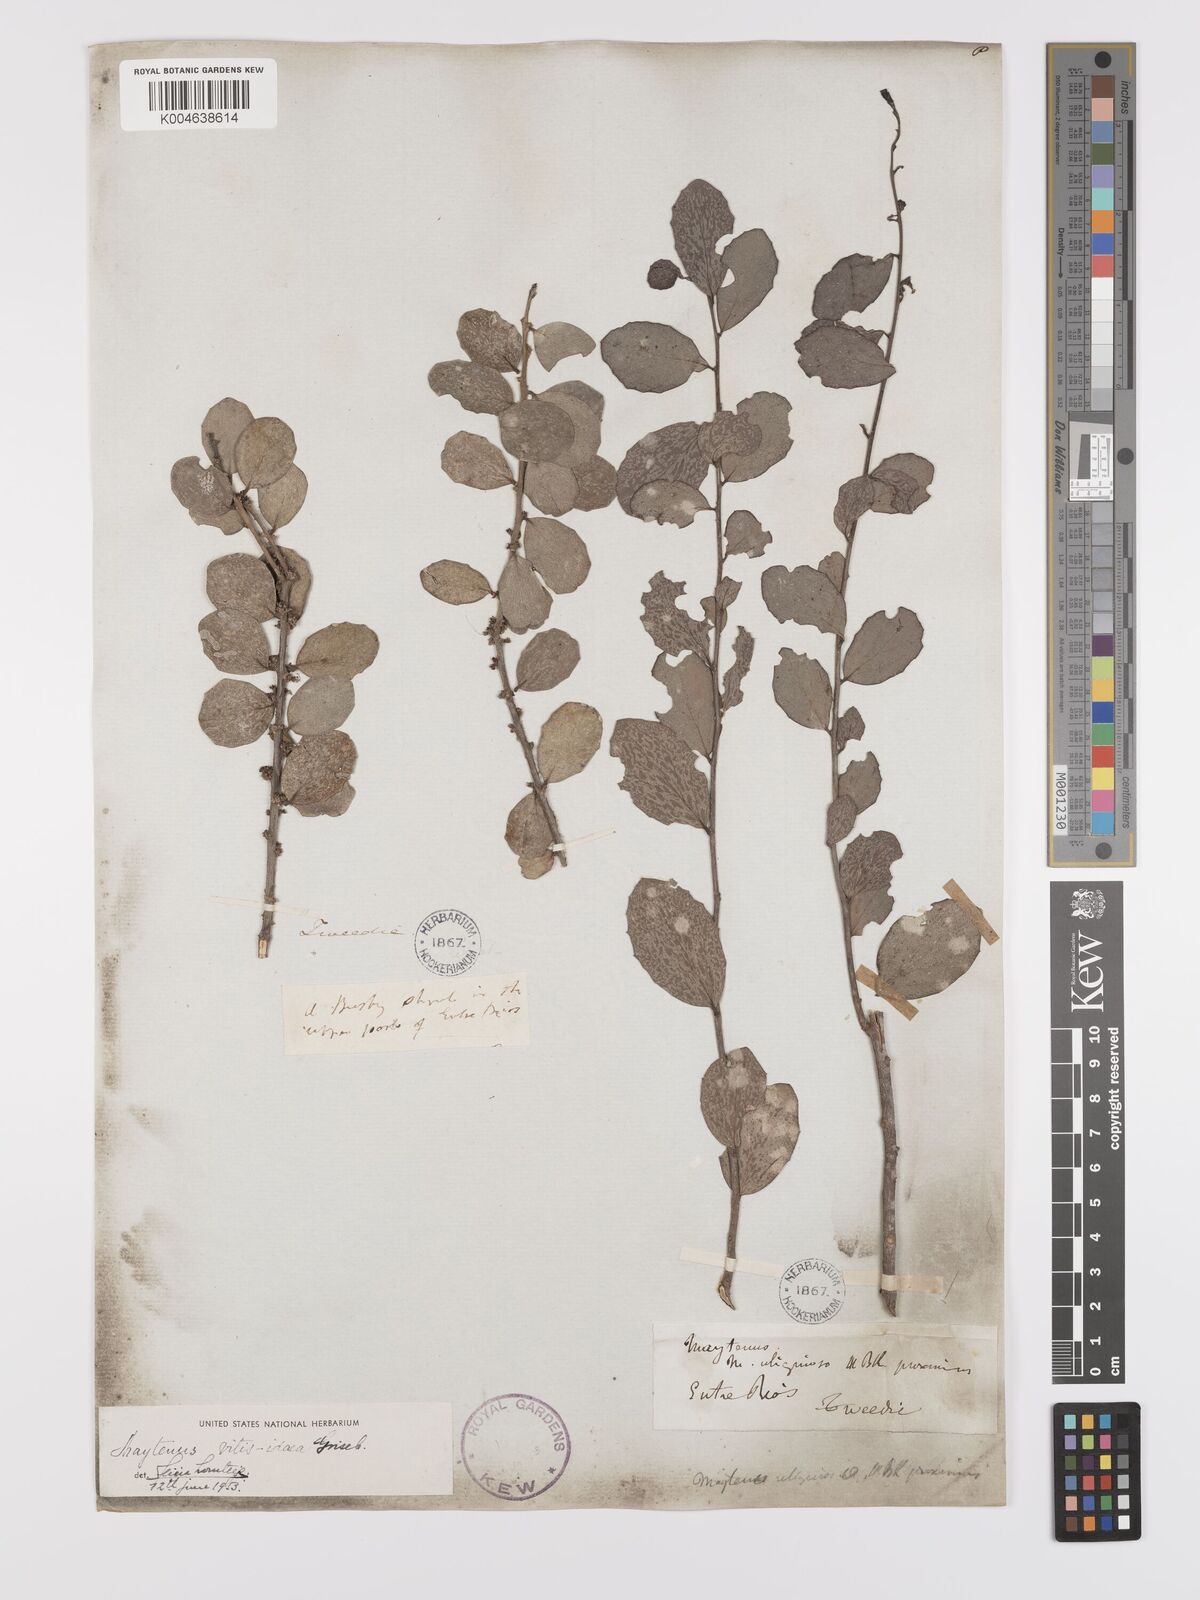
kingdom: Plantae
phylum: Tracheophyta
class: Magnoliopsida
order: Celastrales
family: Celastraceae
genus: Tricerma
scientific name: Tricerma vitis-idaeum
